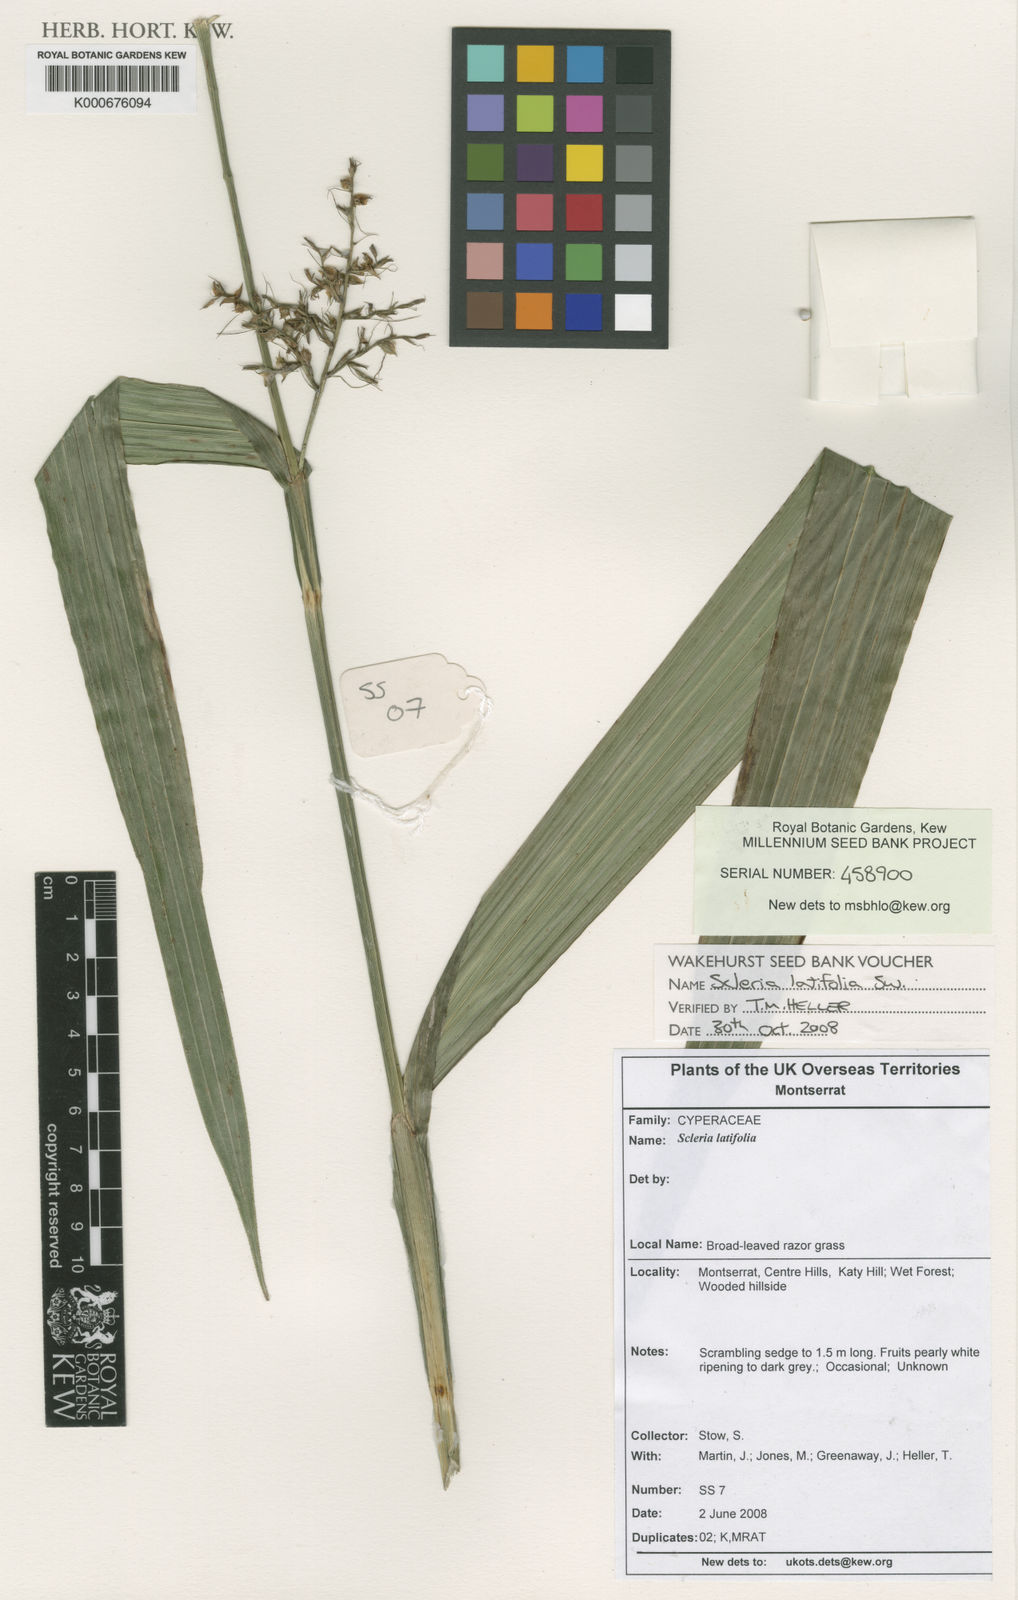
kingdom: Plantae
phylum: Tracheophyta
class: Liliopsida
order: Poales
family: Cyperaceae
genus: Scleria
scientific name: Scleria latifolia
